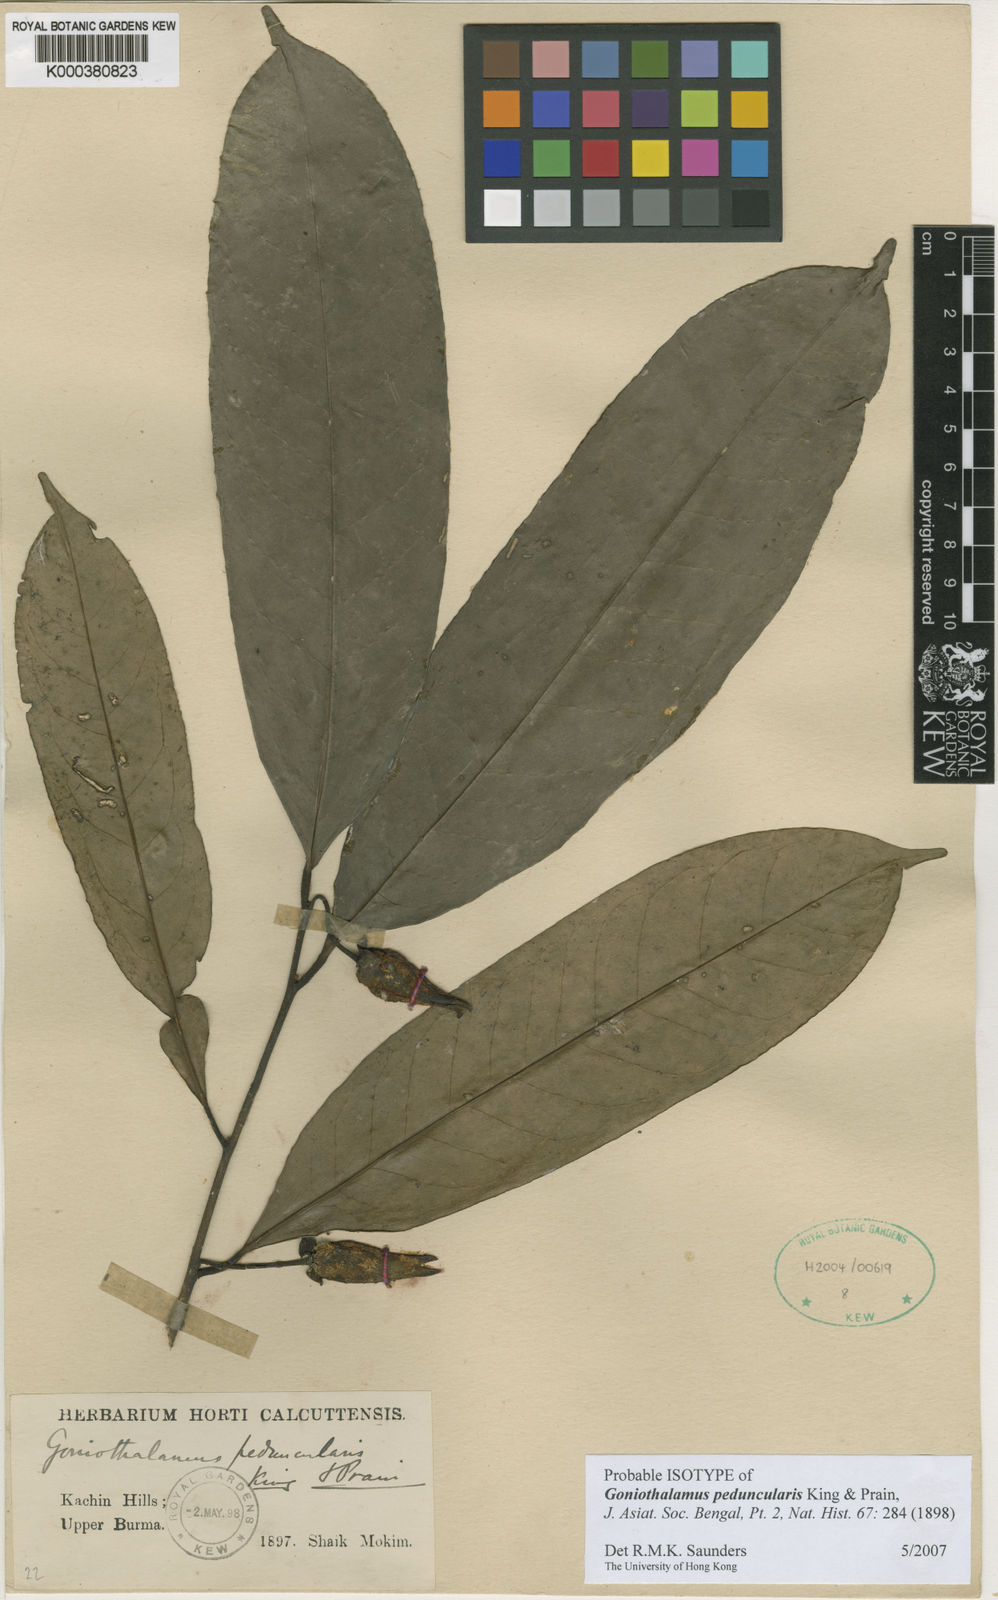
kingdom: Plantae
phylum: Tracheophyta
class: Magnoliopsida
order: Magnoliales
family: Annonaceae
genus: Goniothalamus
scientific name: Goniothalamus peduncularis
